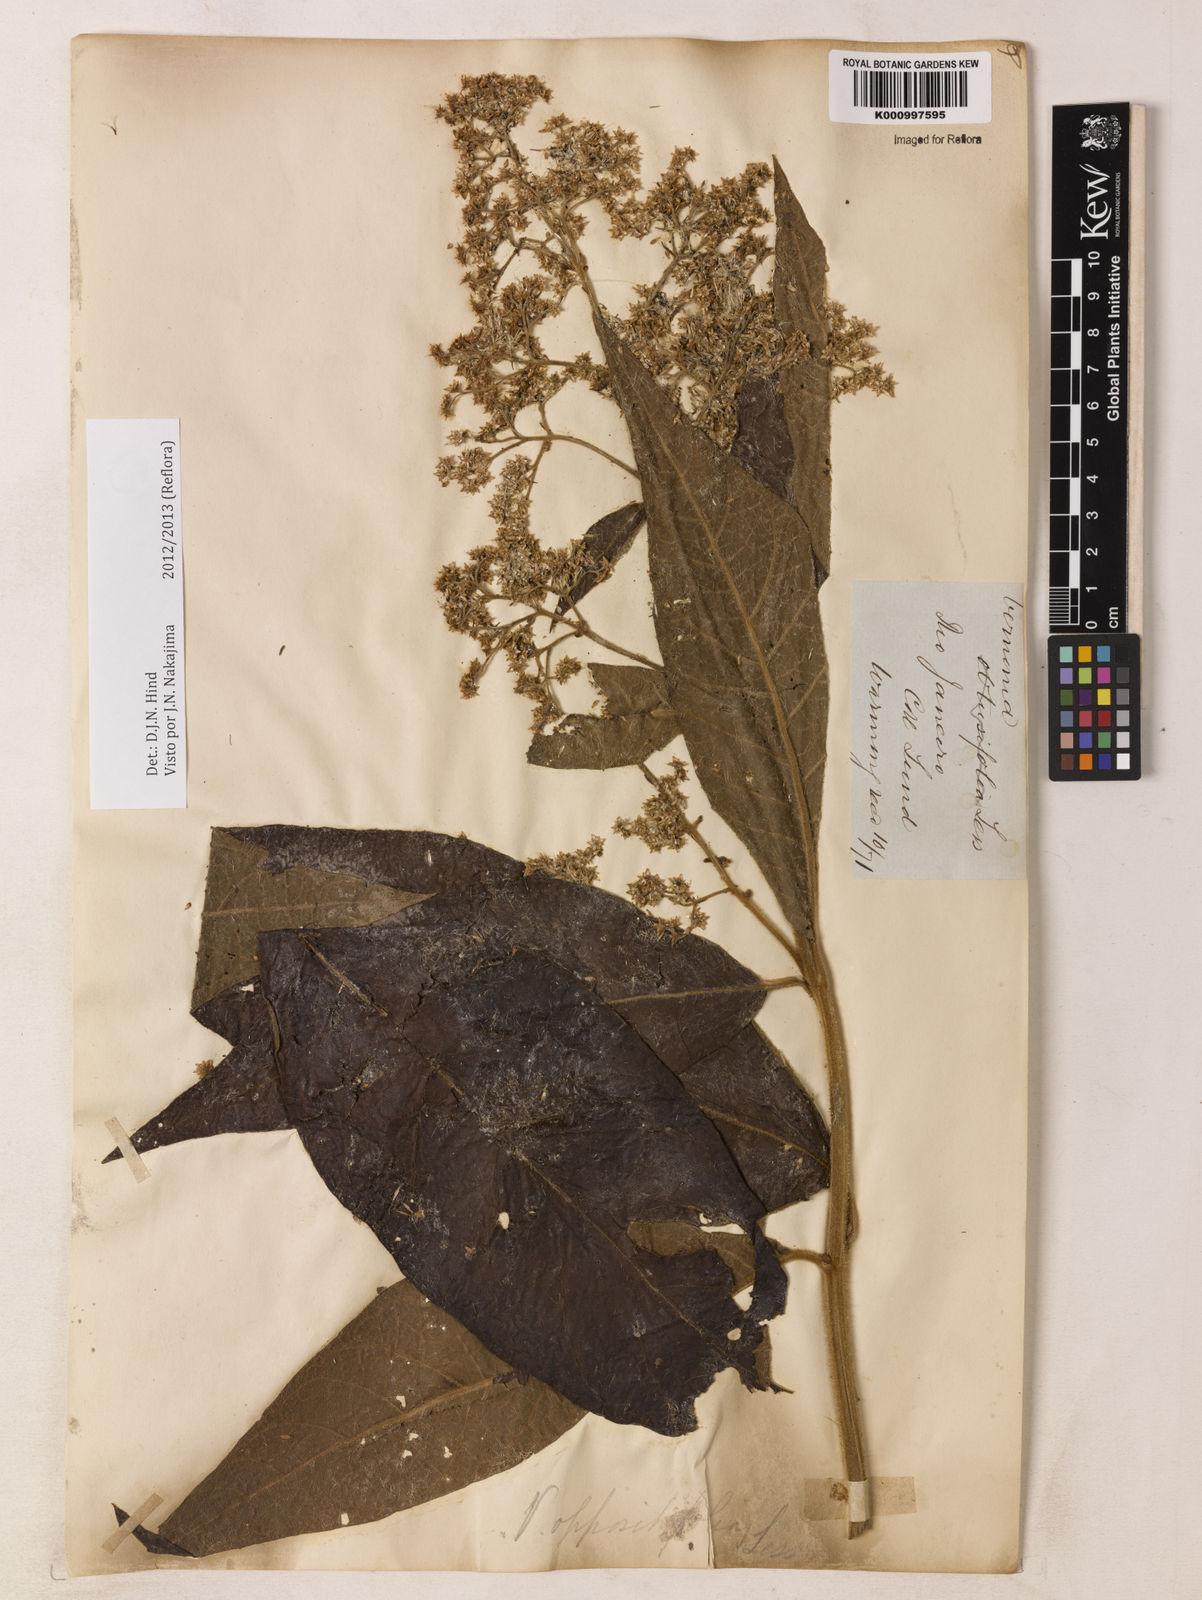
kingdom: Plantae
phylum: Tracheophyta
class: Magnoliopsida
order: Asterales
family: Asteraceae
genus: Critoniopsis
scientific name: Critoniopsis stellata
